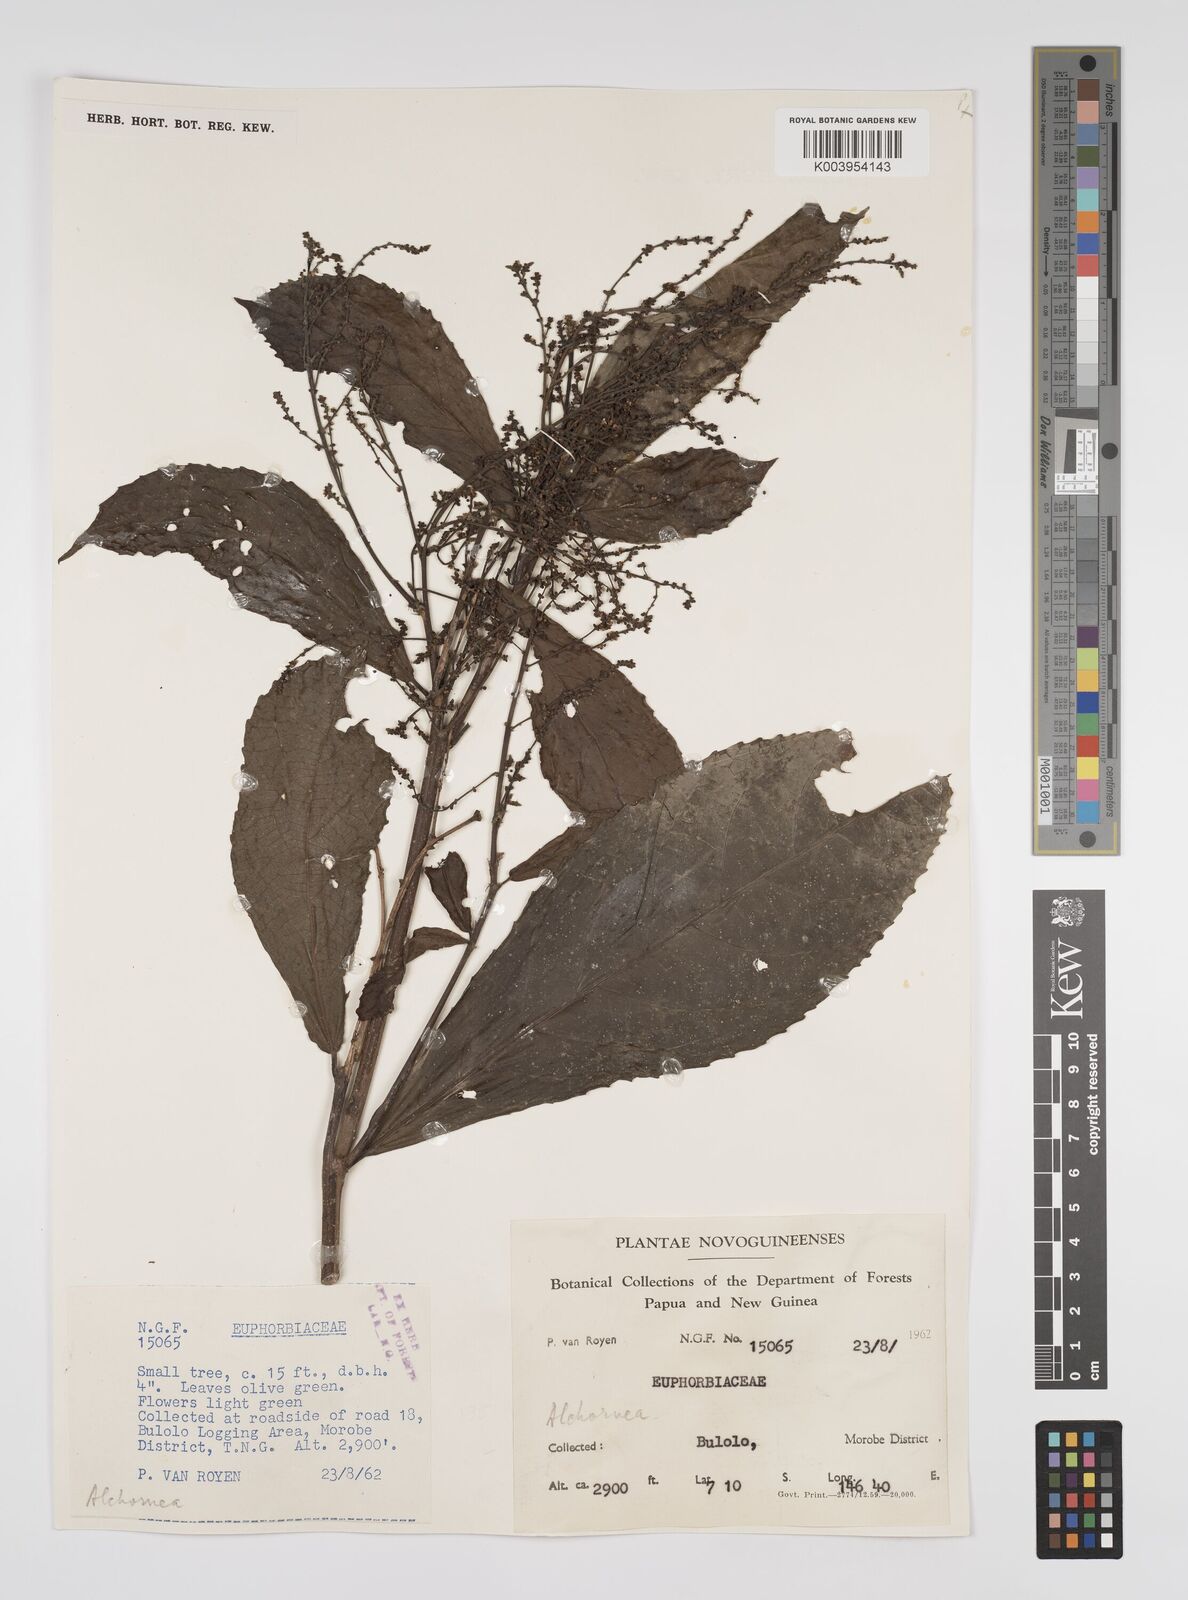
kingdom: Plantae
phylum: Tracheophyta
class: Magnoliopsida
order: Malpighiales
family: Euphorbiaceae
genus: Alchornea
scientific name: Alchornea rugosa
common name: Alchorntree
